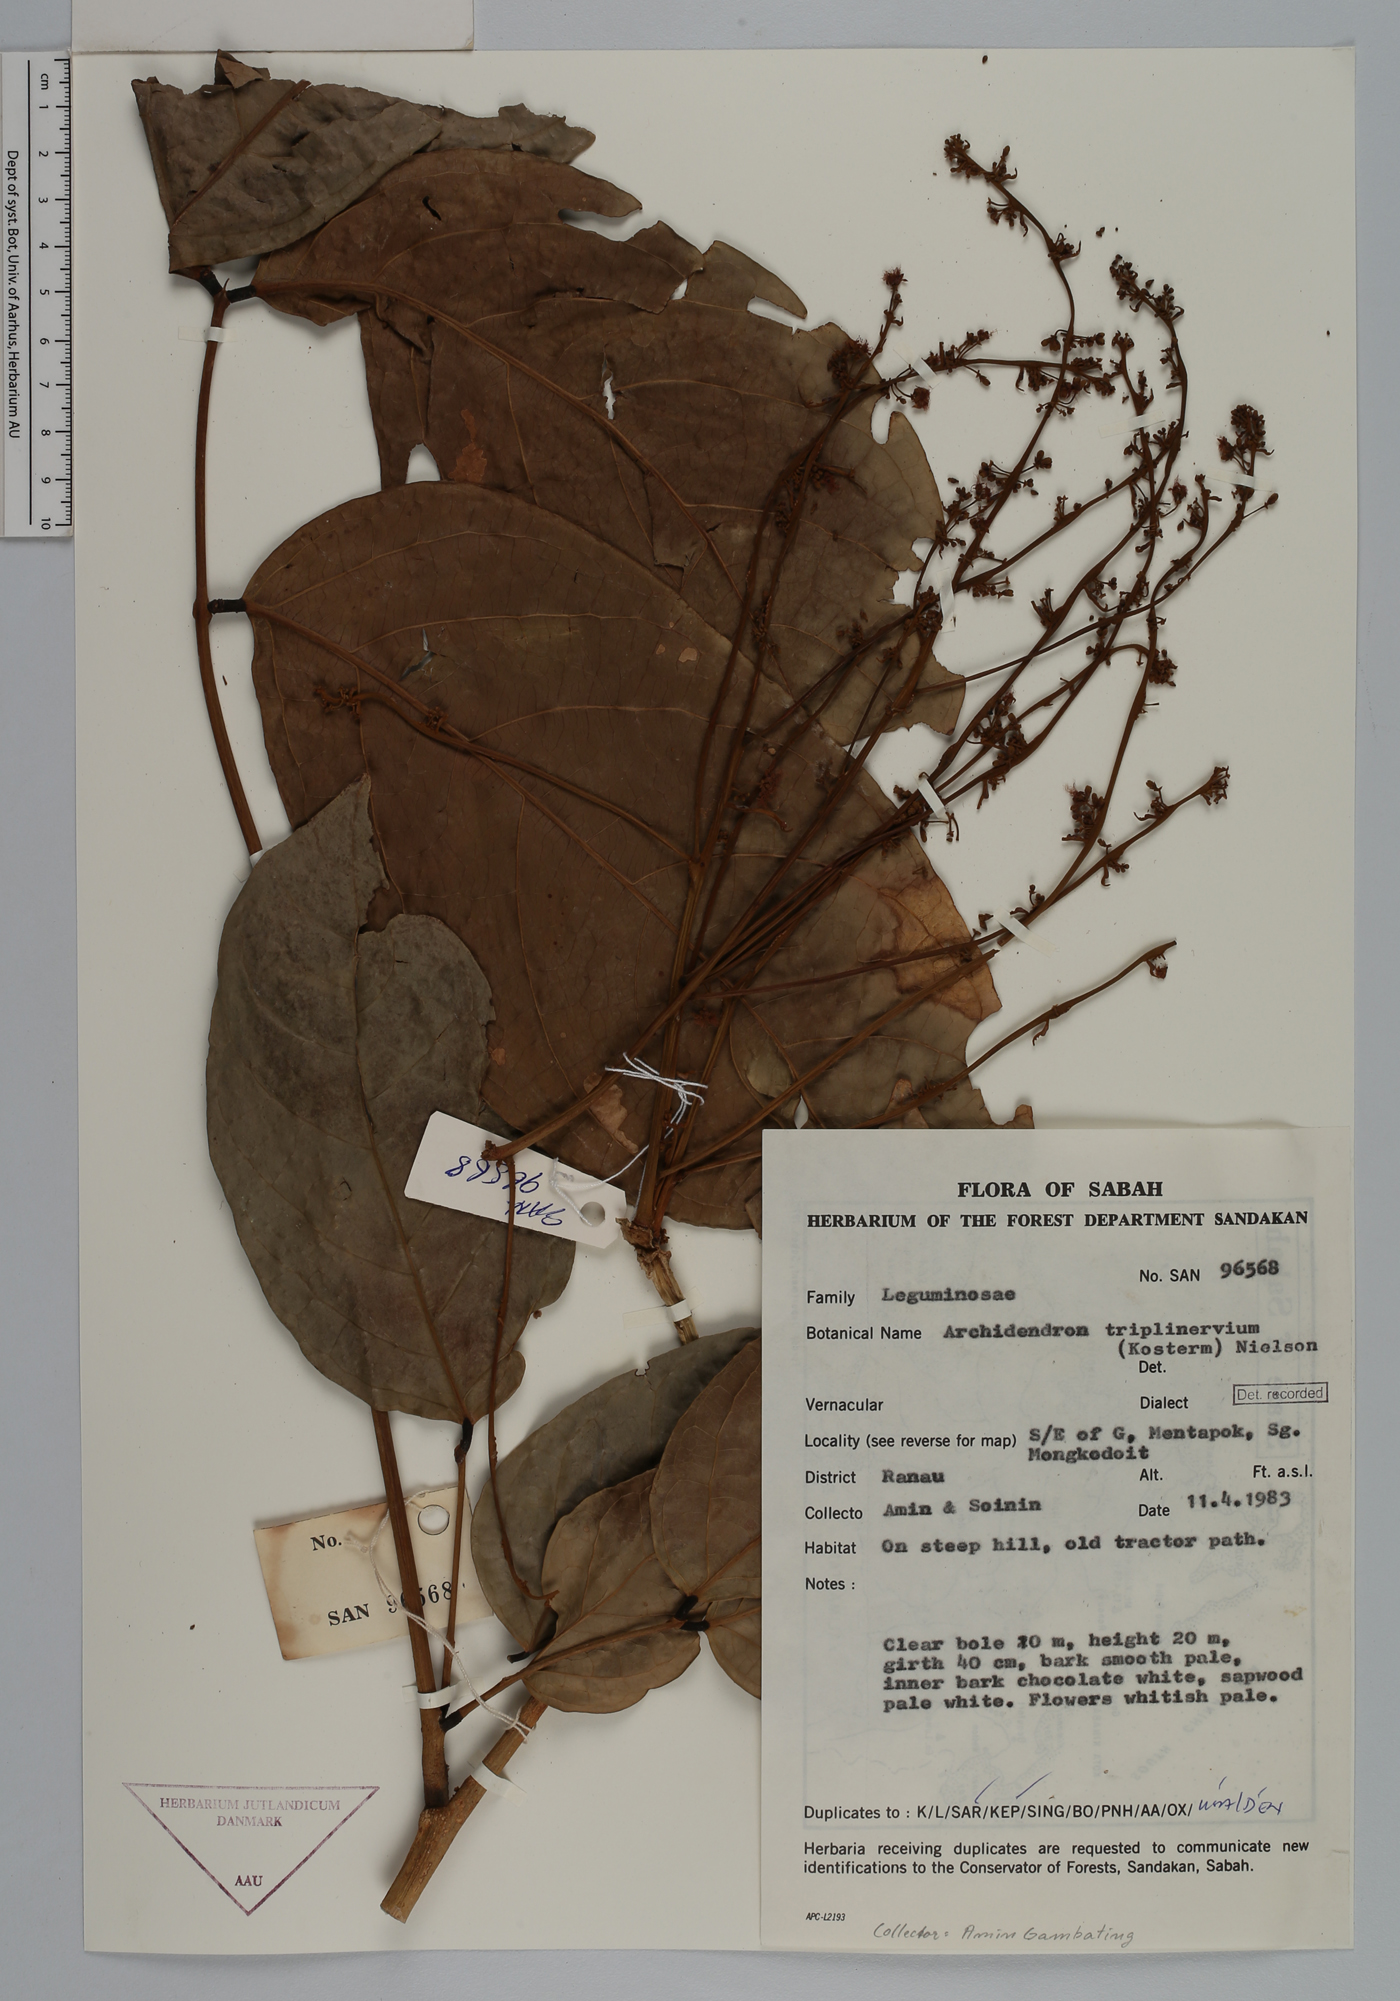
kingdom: Plantae
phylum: Tracheophyta
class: Magnoliopsida
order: Fabales
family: Fabaceae
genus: Archidendron
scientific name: Archidendron triplinervium
